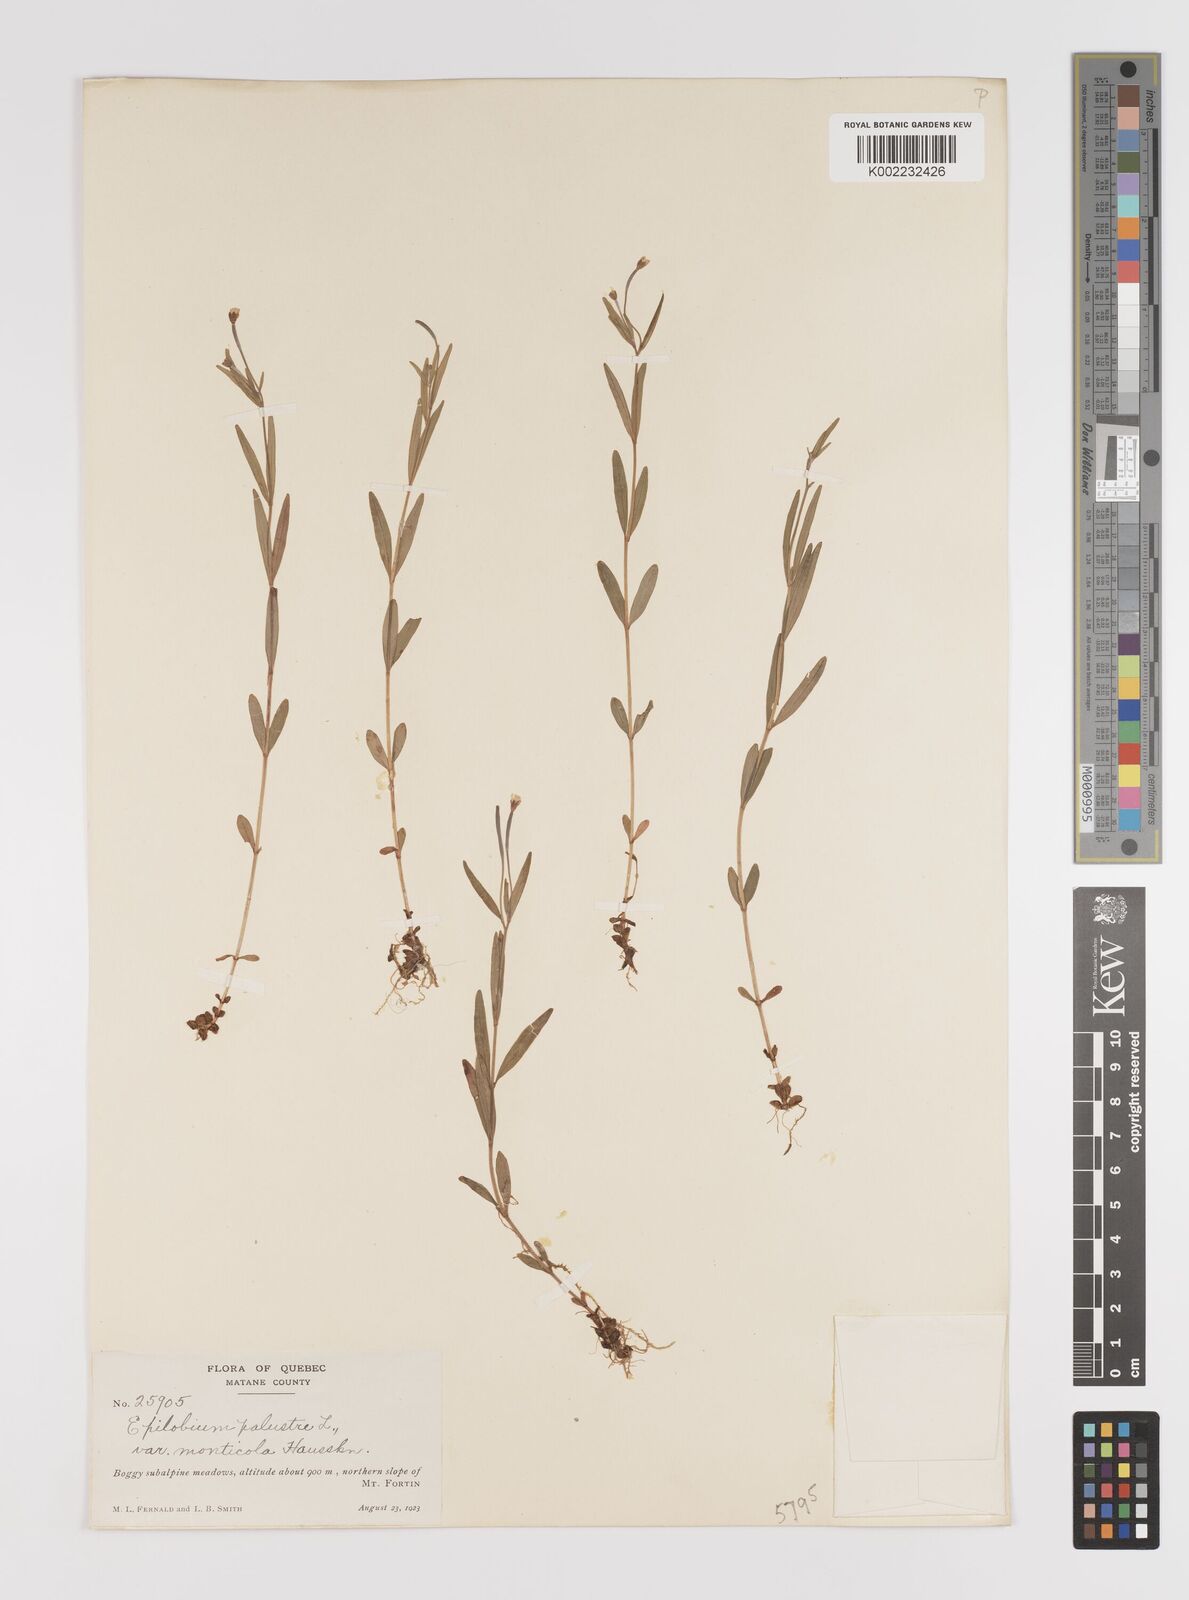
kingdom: Plantae
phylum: Tracheophyta
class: Magnoliopsida
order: Myrtales
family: Onagraceae
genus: Epilobium
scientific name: Epilobium palustre
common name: Marsh willowherb
